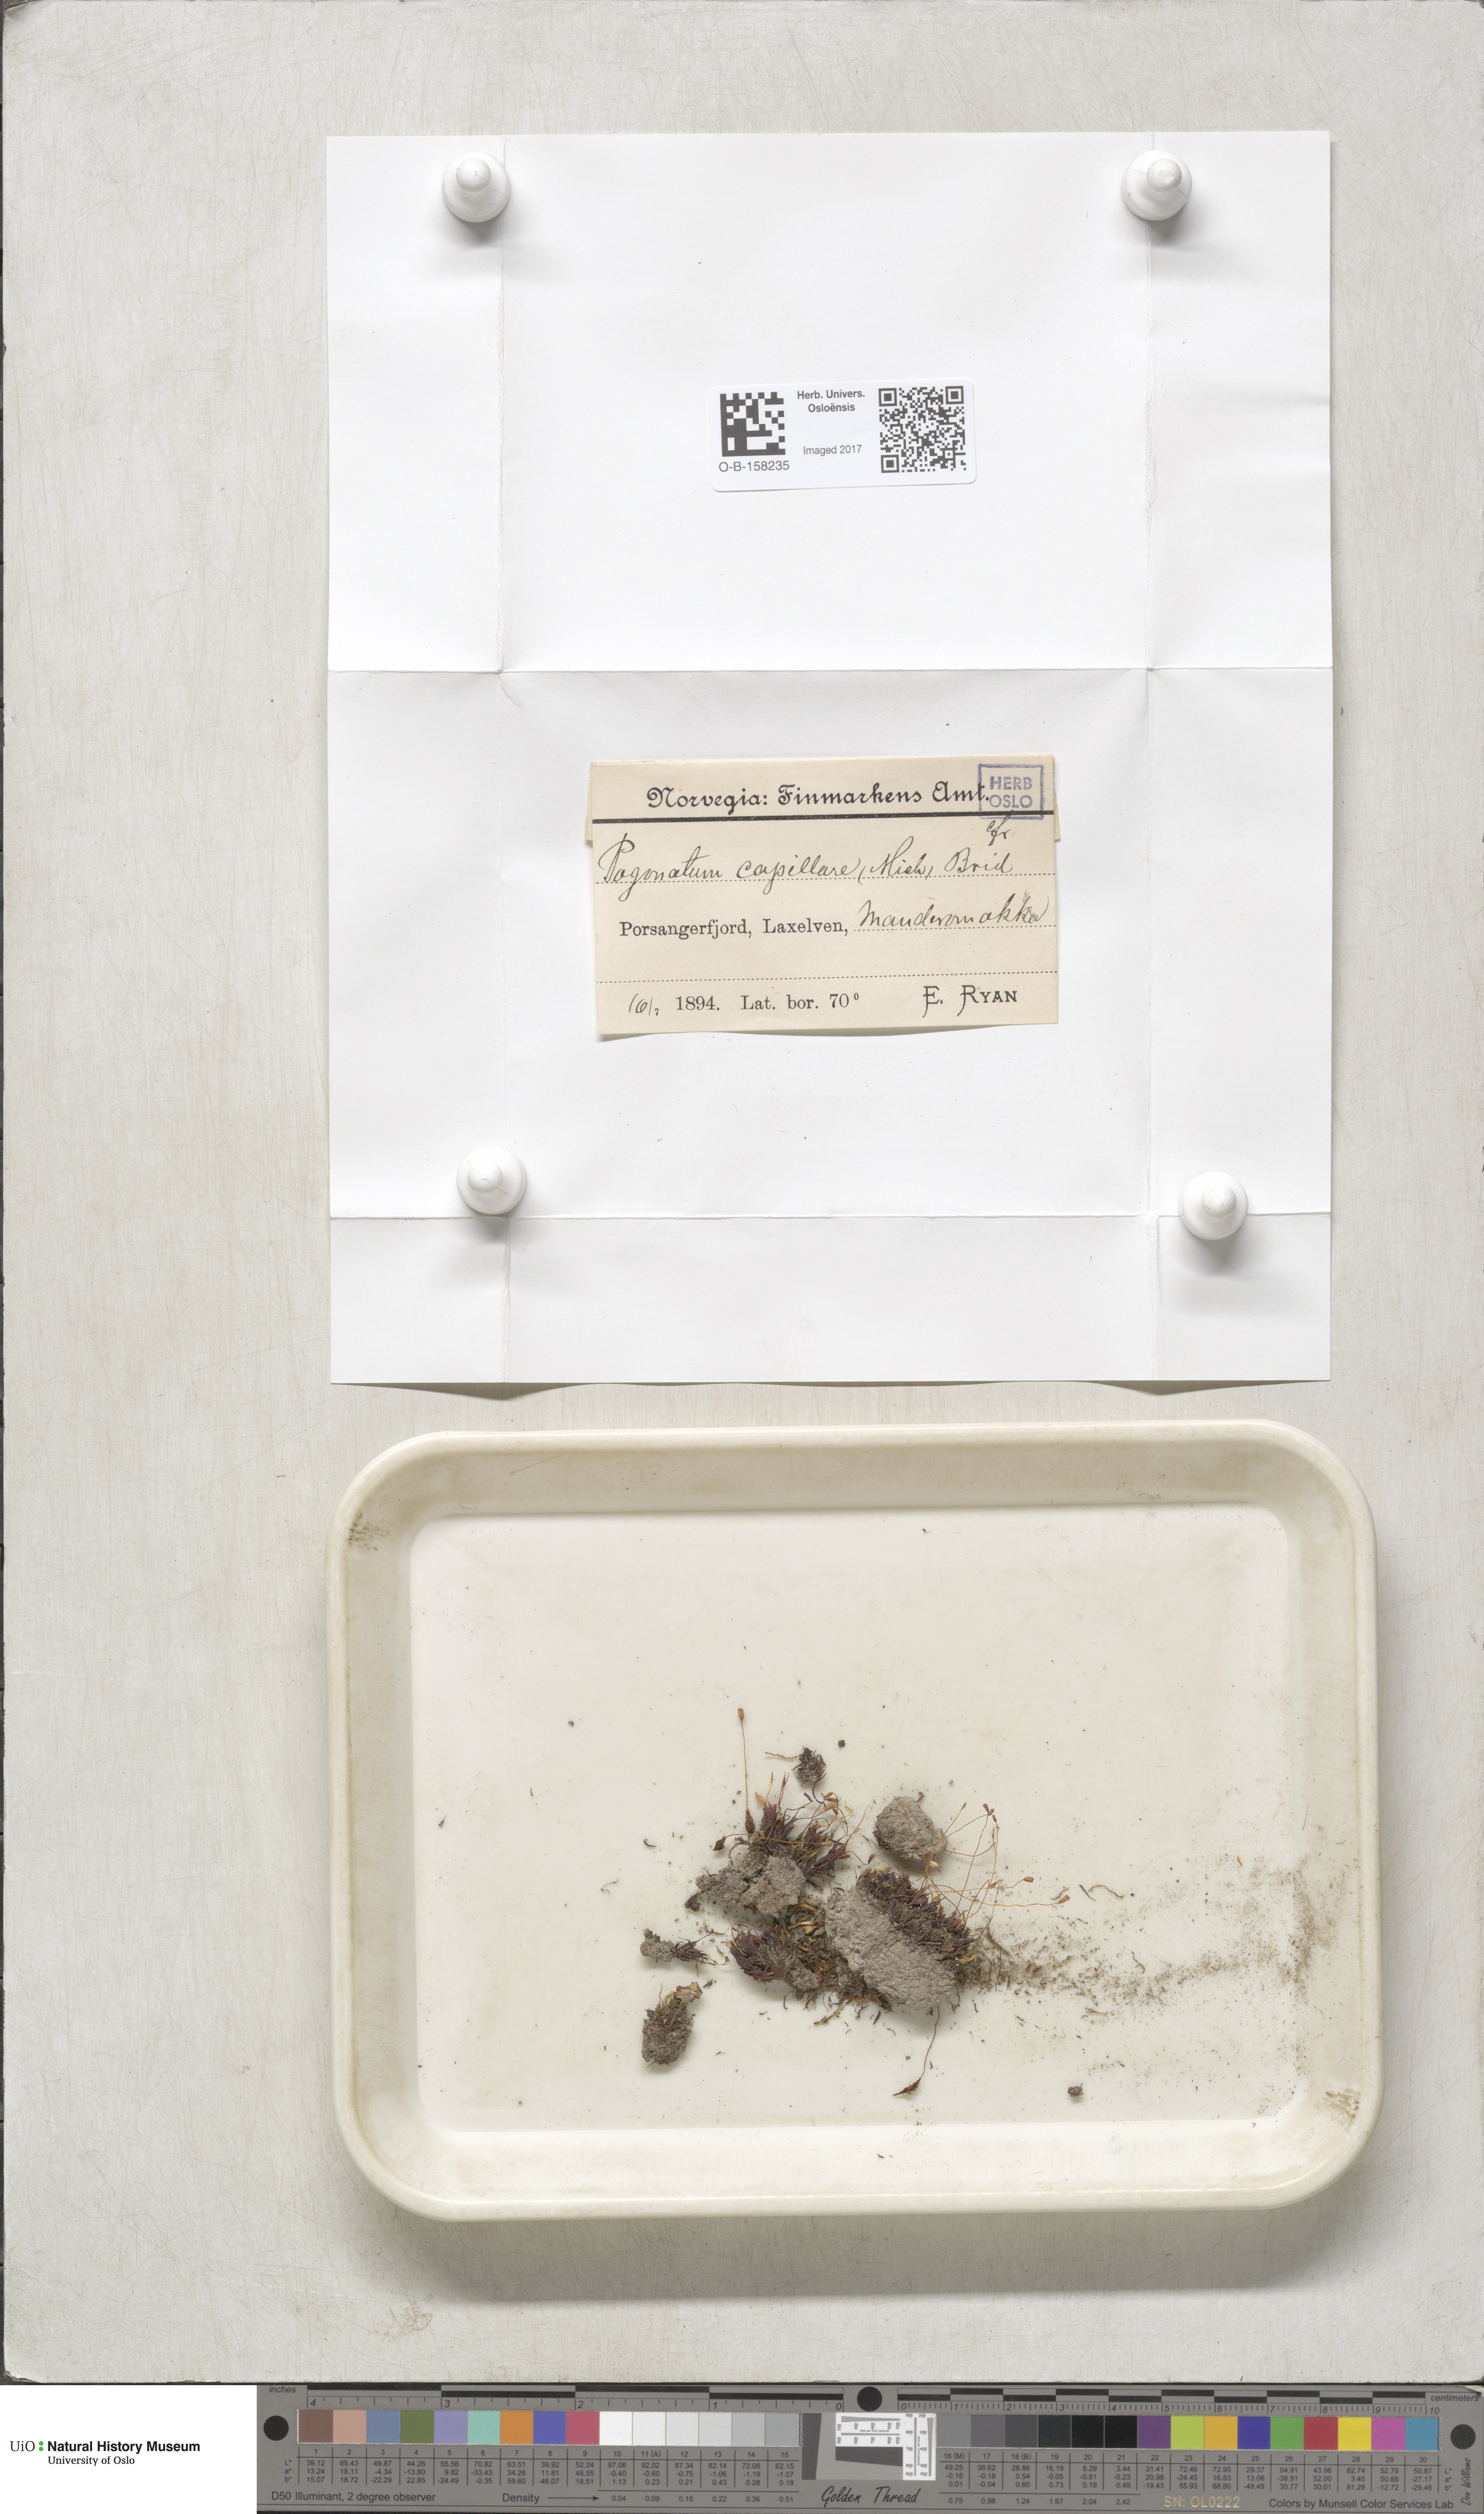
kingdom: Plantae
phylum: Bryophyta
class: Polytrichopsida
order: Polytrichales
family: Polytrichaceae
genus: Pogonatum
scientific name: Pogonatum dentatum
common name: Mountain hair moss
